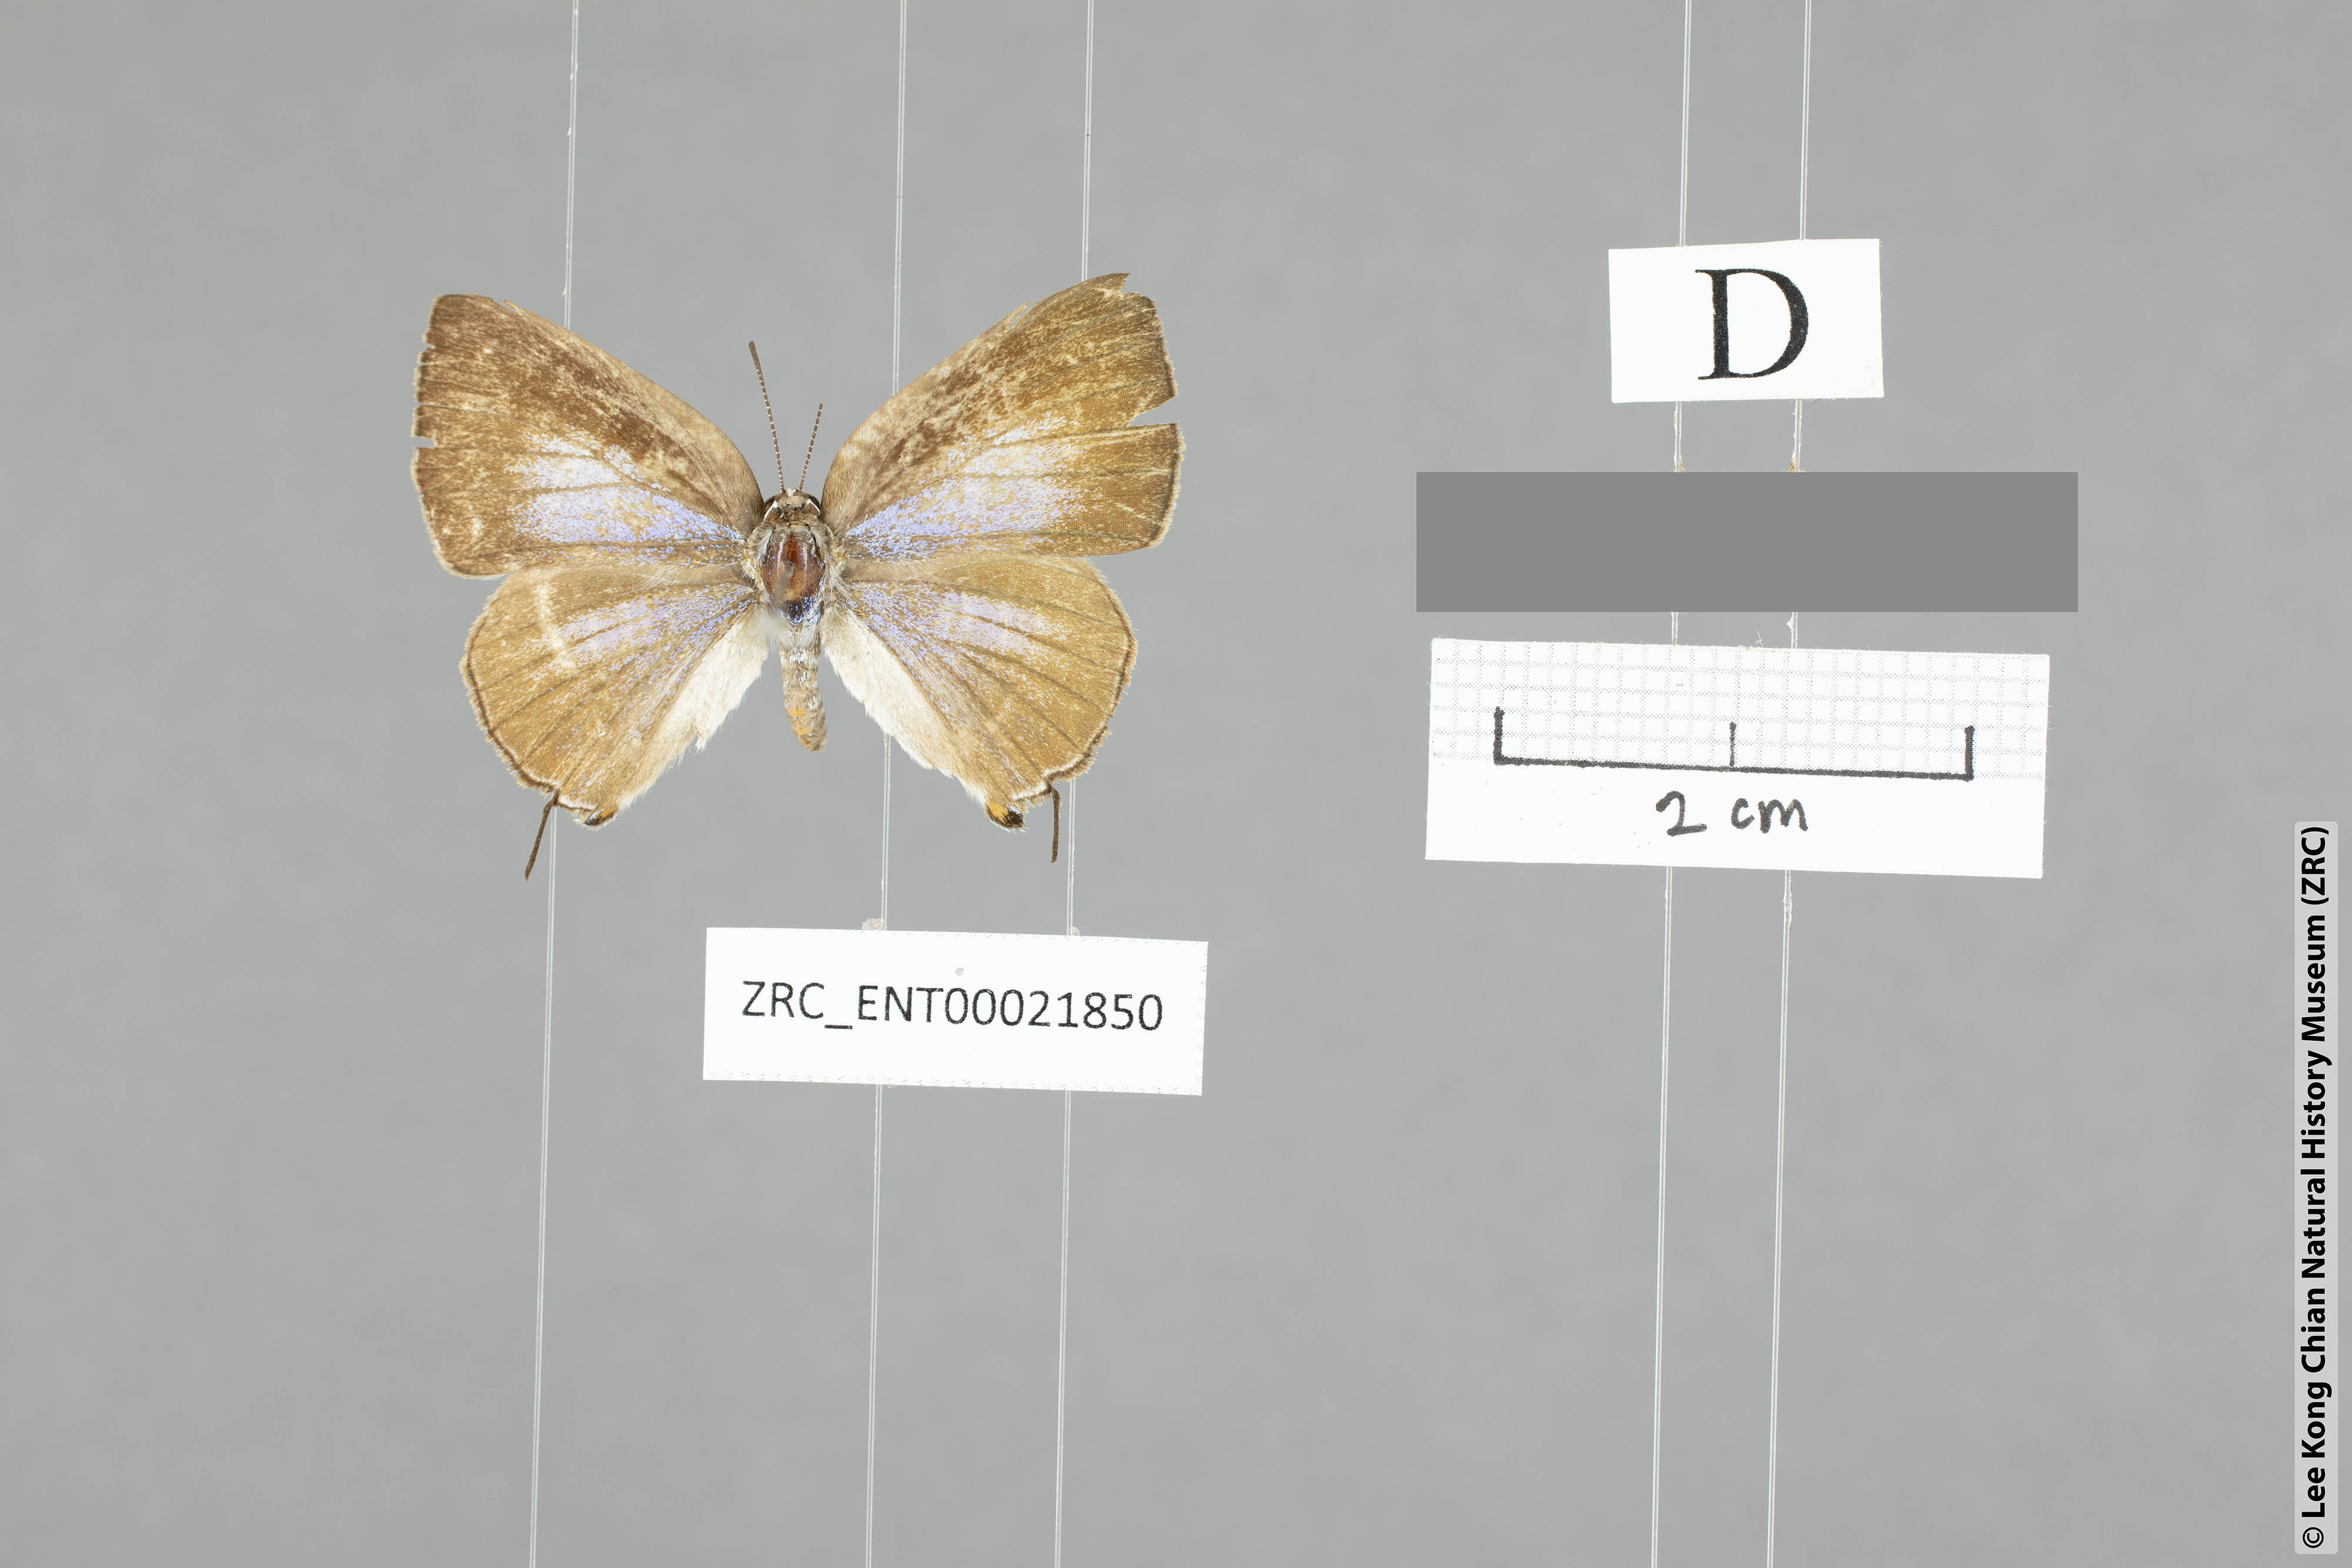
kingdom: Animalia
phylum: Arthropoda
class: Insecta
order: Lepidoptera
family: Lycaenidae
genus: Deudorix
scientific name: Deudorix kessuma
